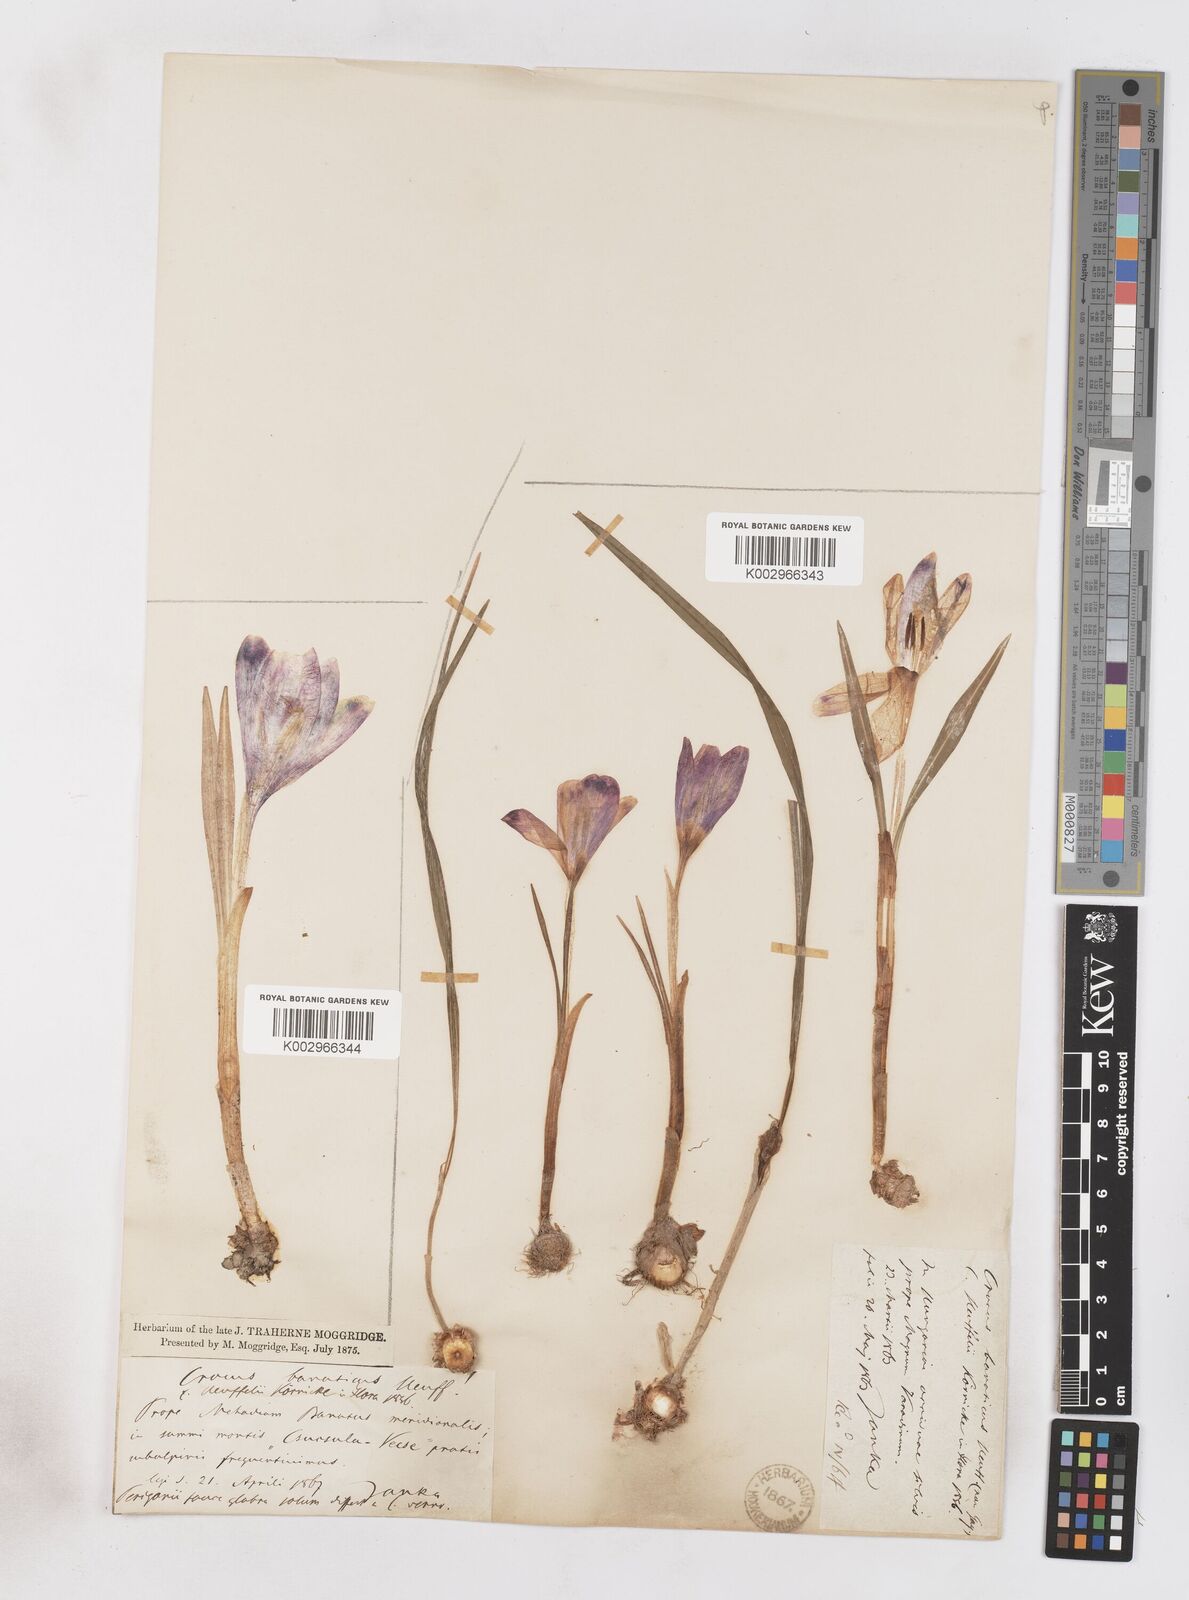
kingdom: Plantae
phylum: Tracheophyta
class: Liliopsida
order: Asparagales
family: Iridaceae
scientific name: Iridaceae
